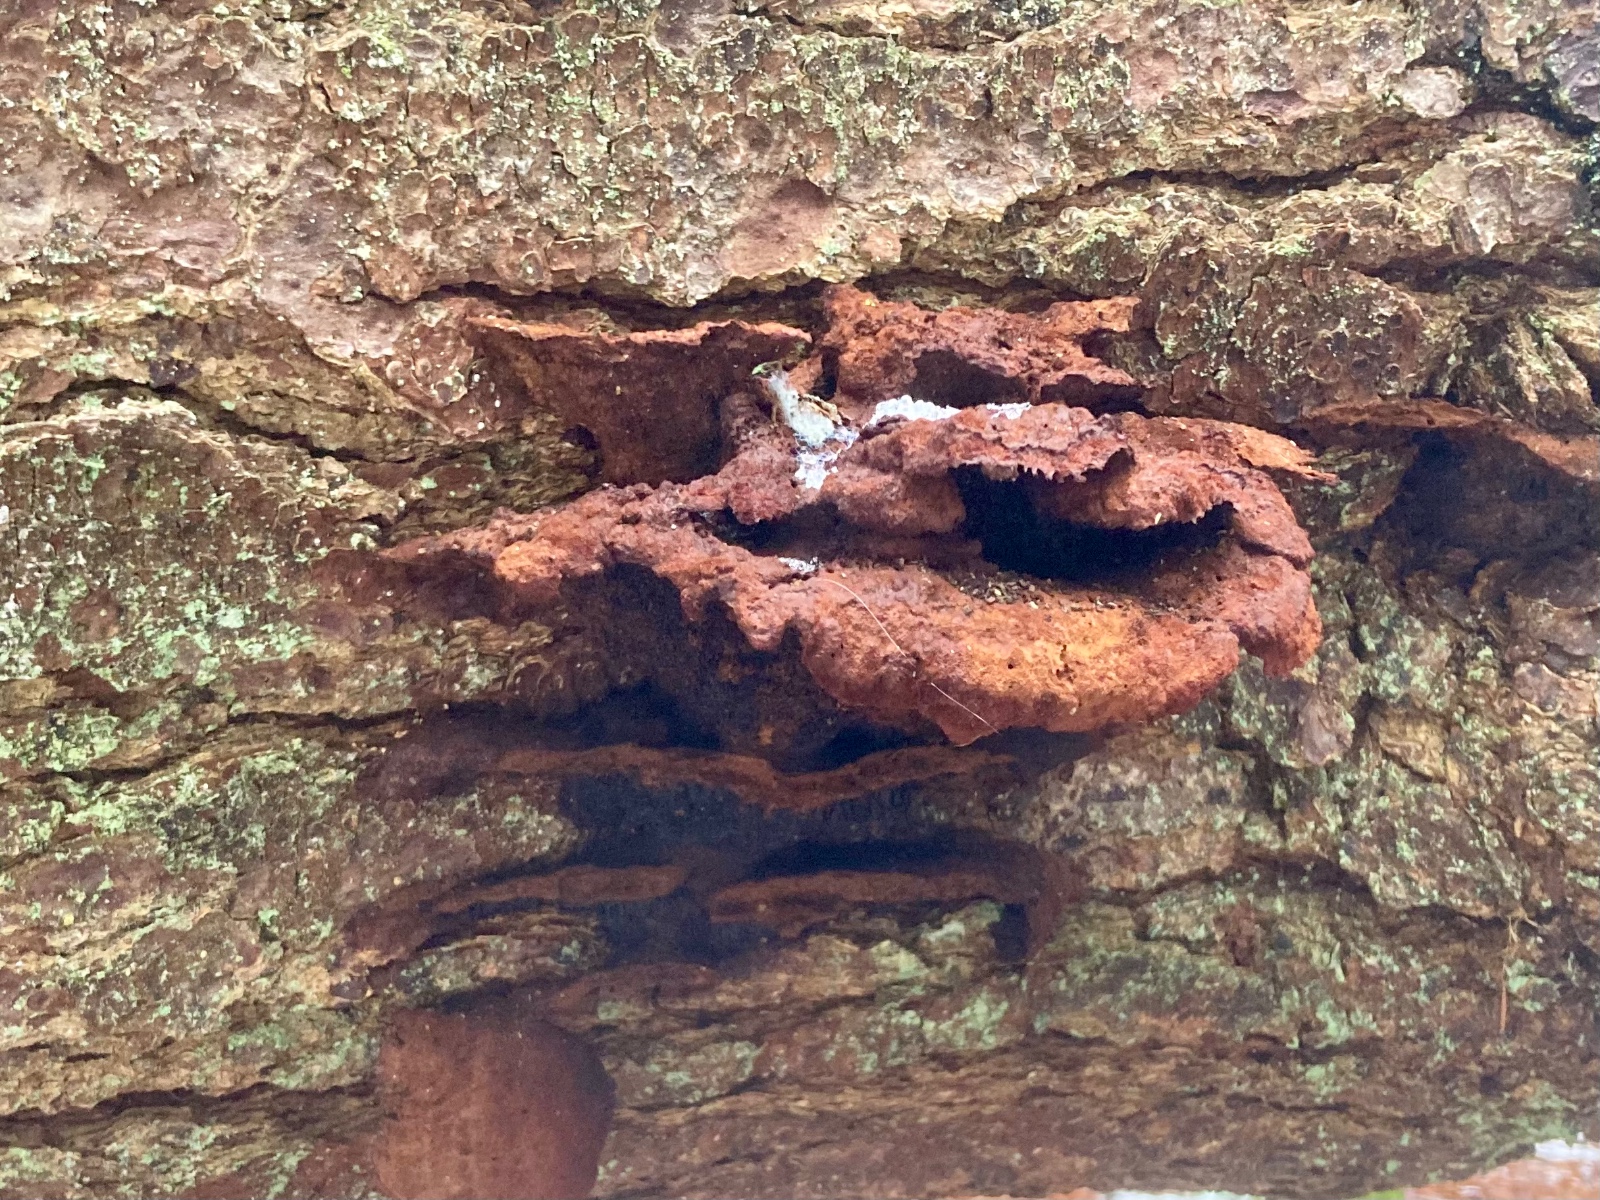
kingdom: Fungi
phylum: Basidiomycota
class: Agaricomycetes
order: Polyporales
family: Laetiporaceae
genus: Phaeolus
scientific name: Phaeolus schweinitzii
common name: brunporesvamp
